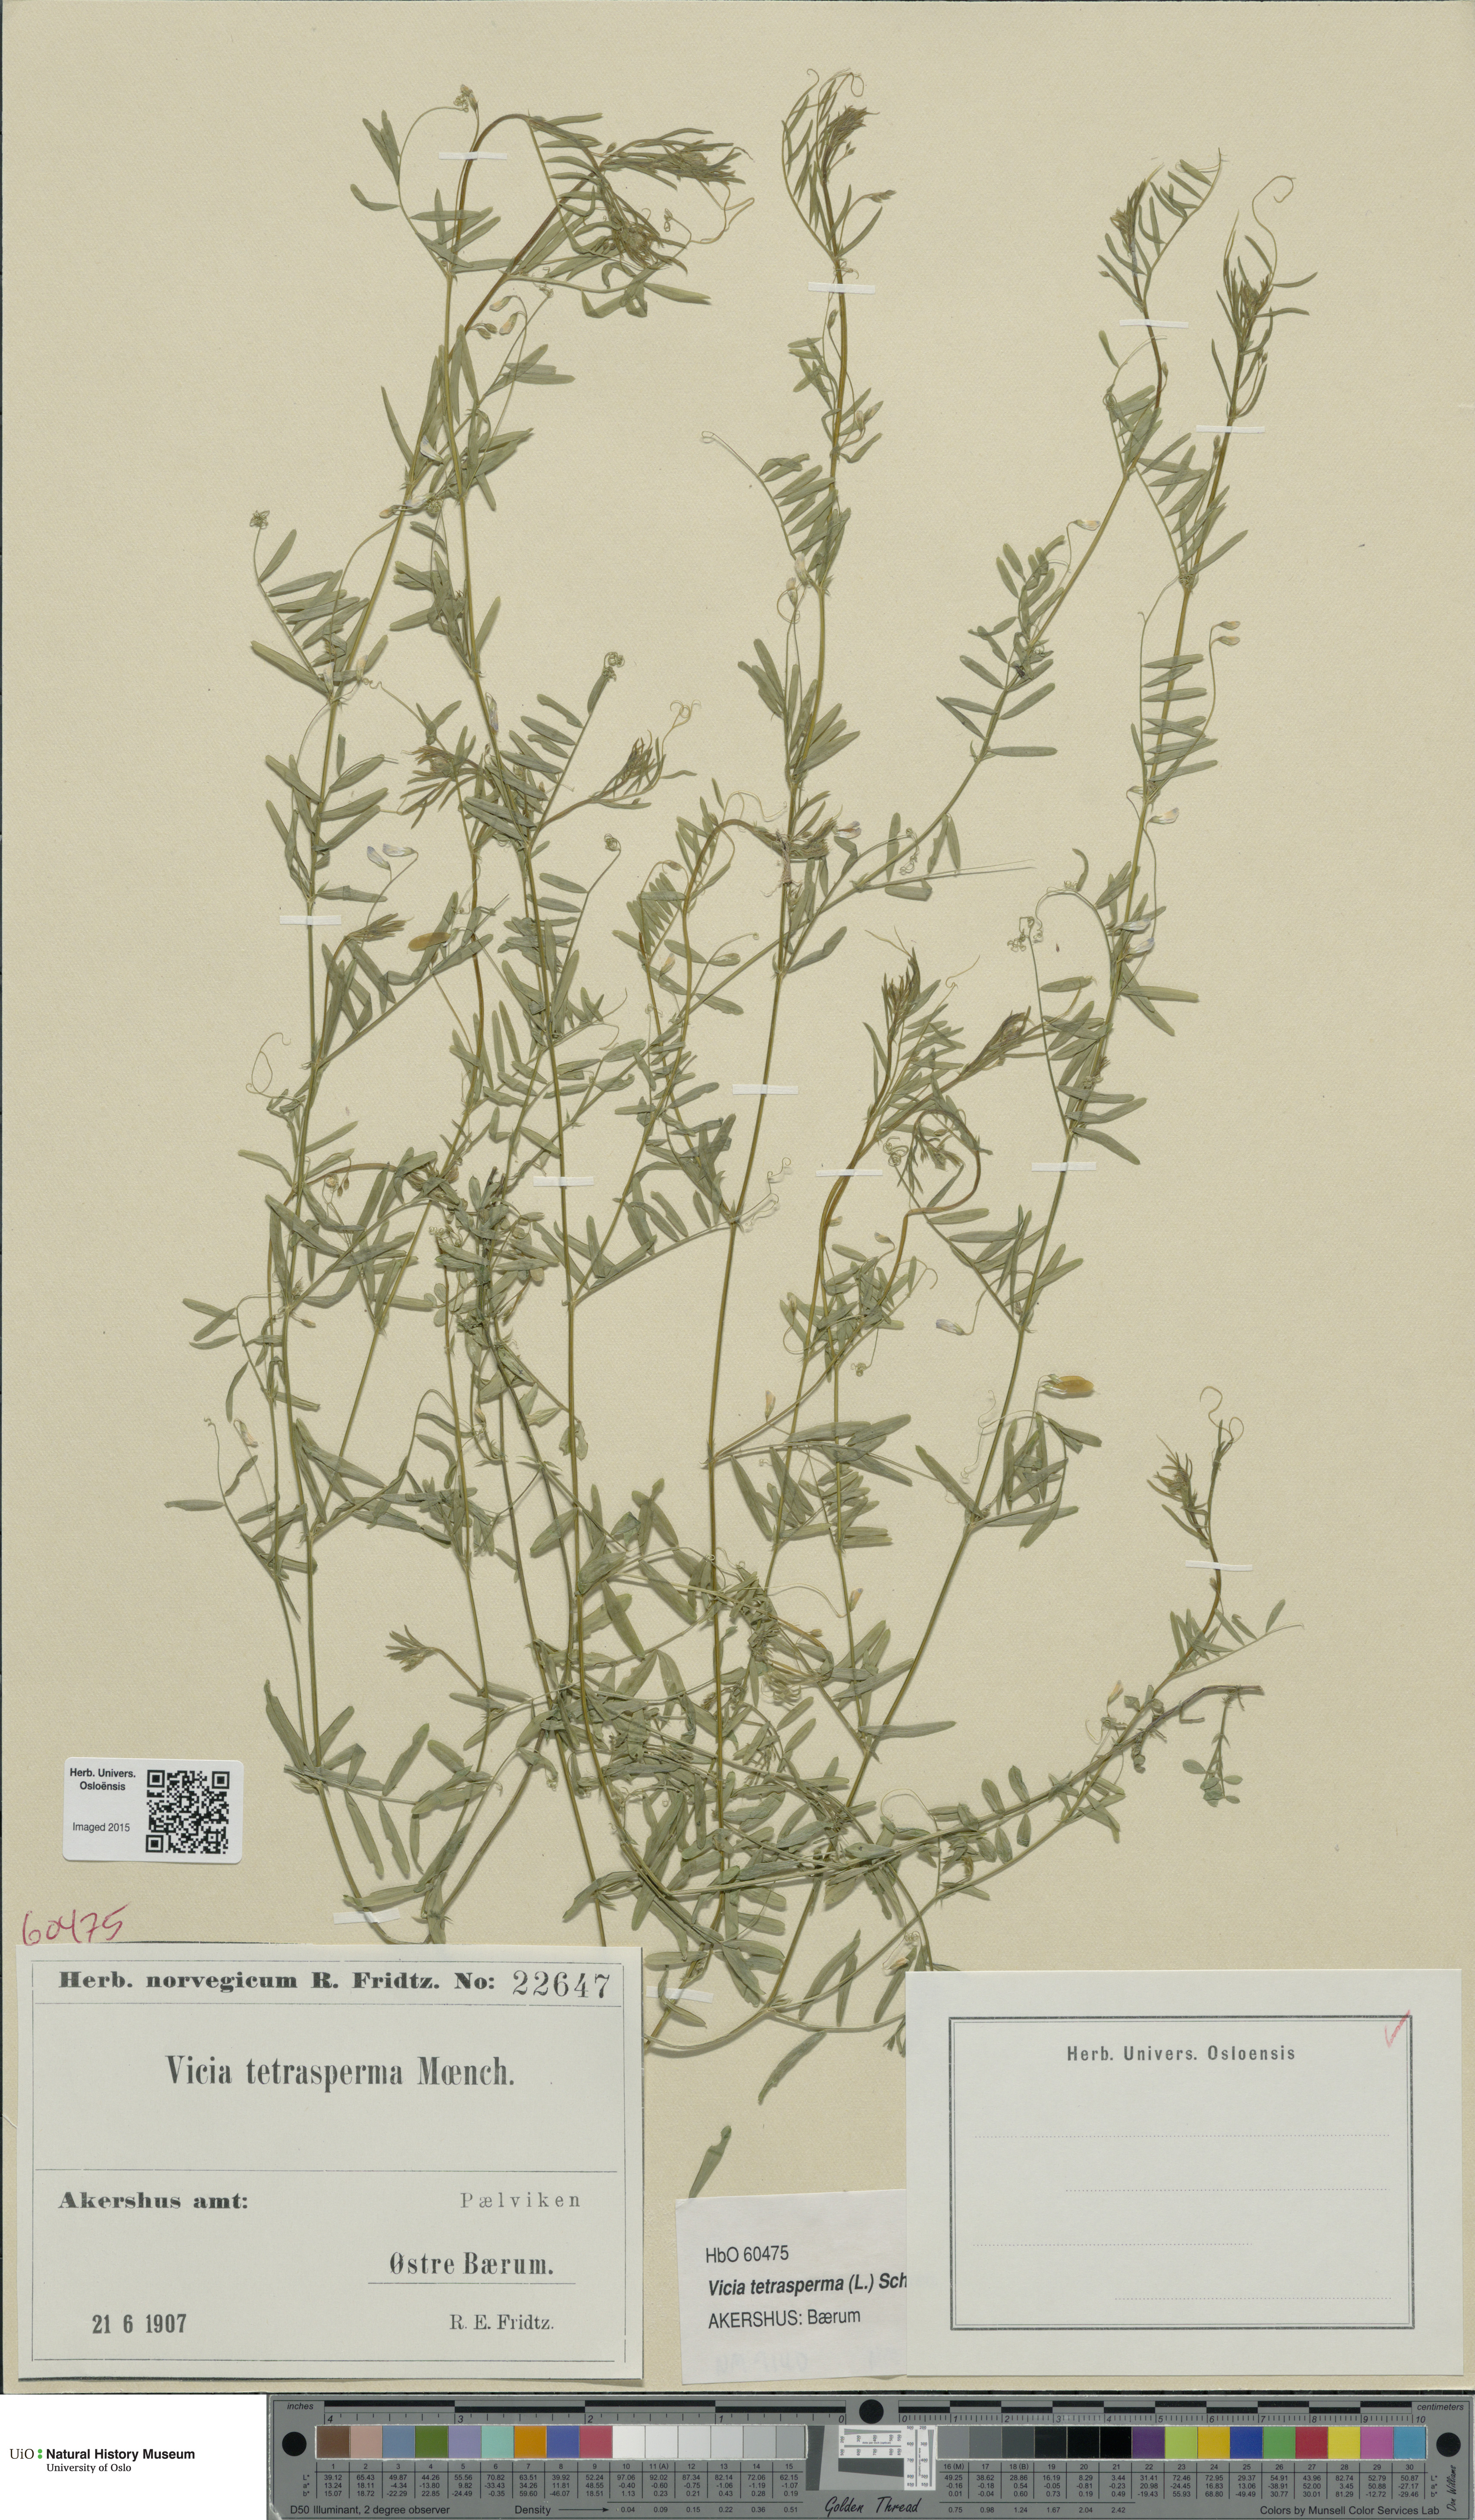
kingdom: Plantae
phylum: Tracheophyta
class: Magnoliopsida
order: Fabales
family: Fabaceae
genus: Vicia
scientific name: Vicia tetrasperma
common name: Smooth tare
